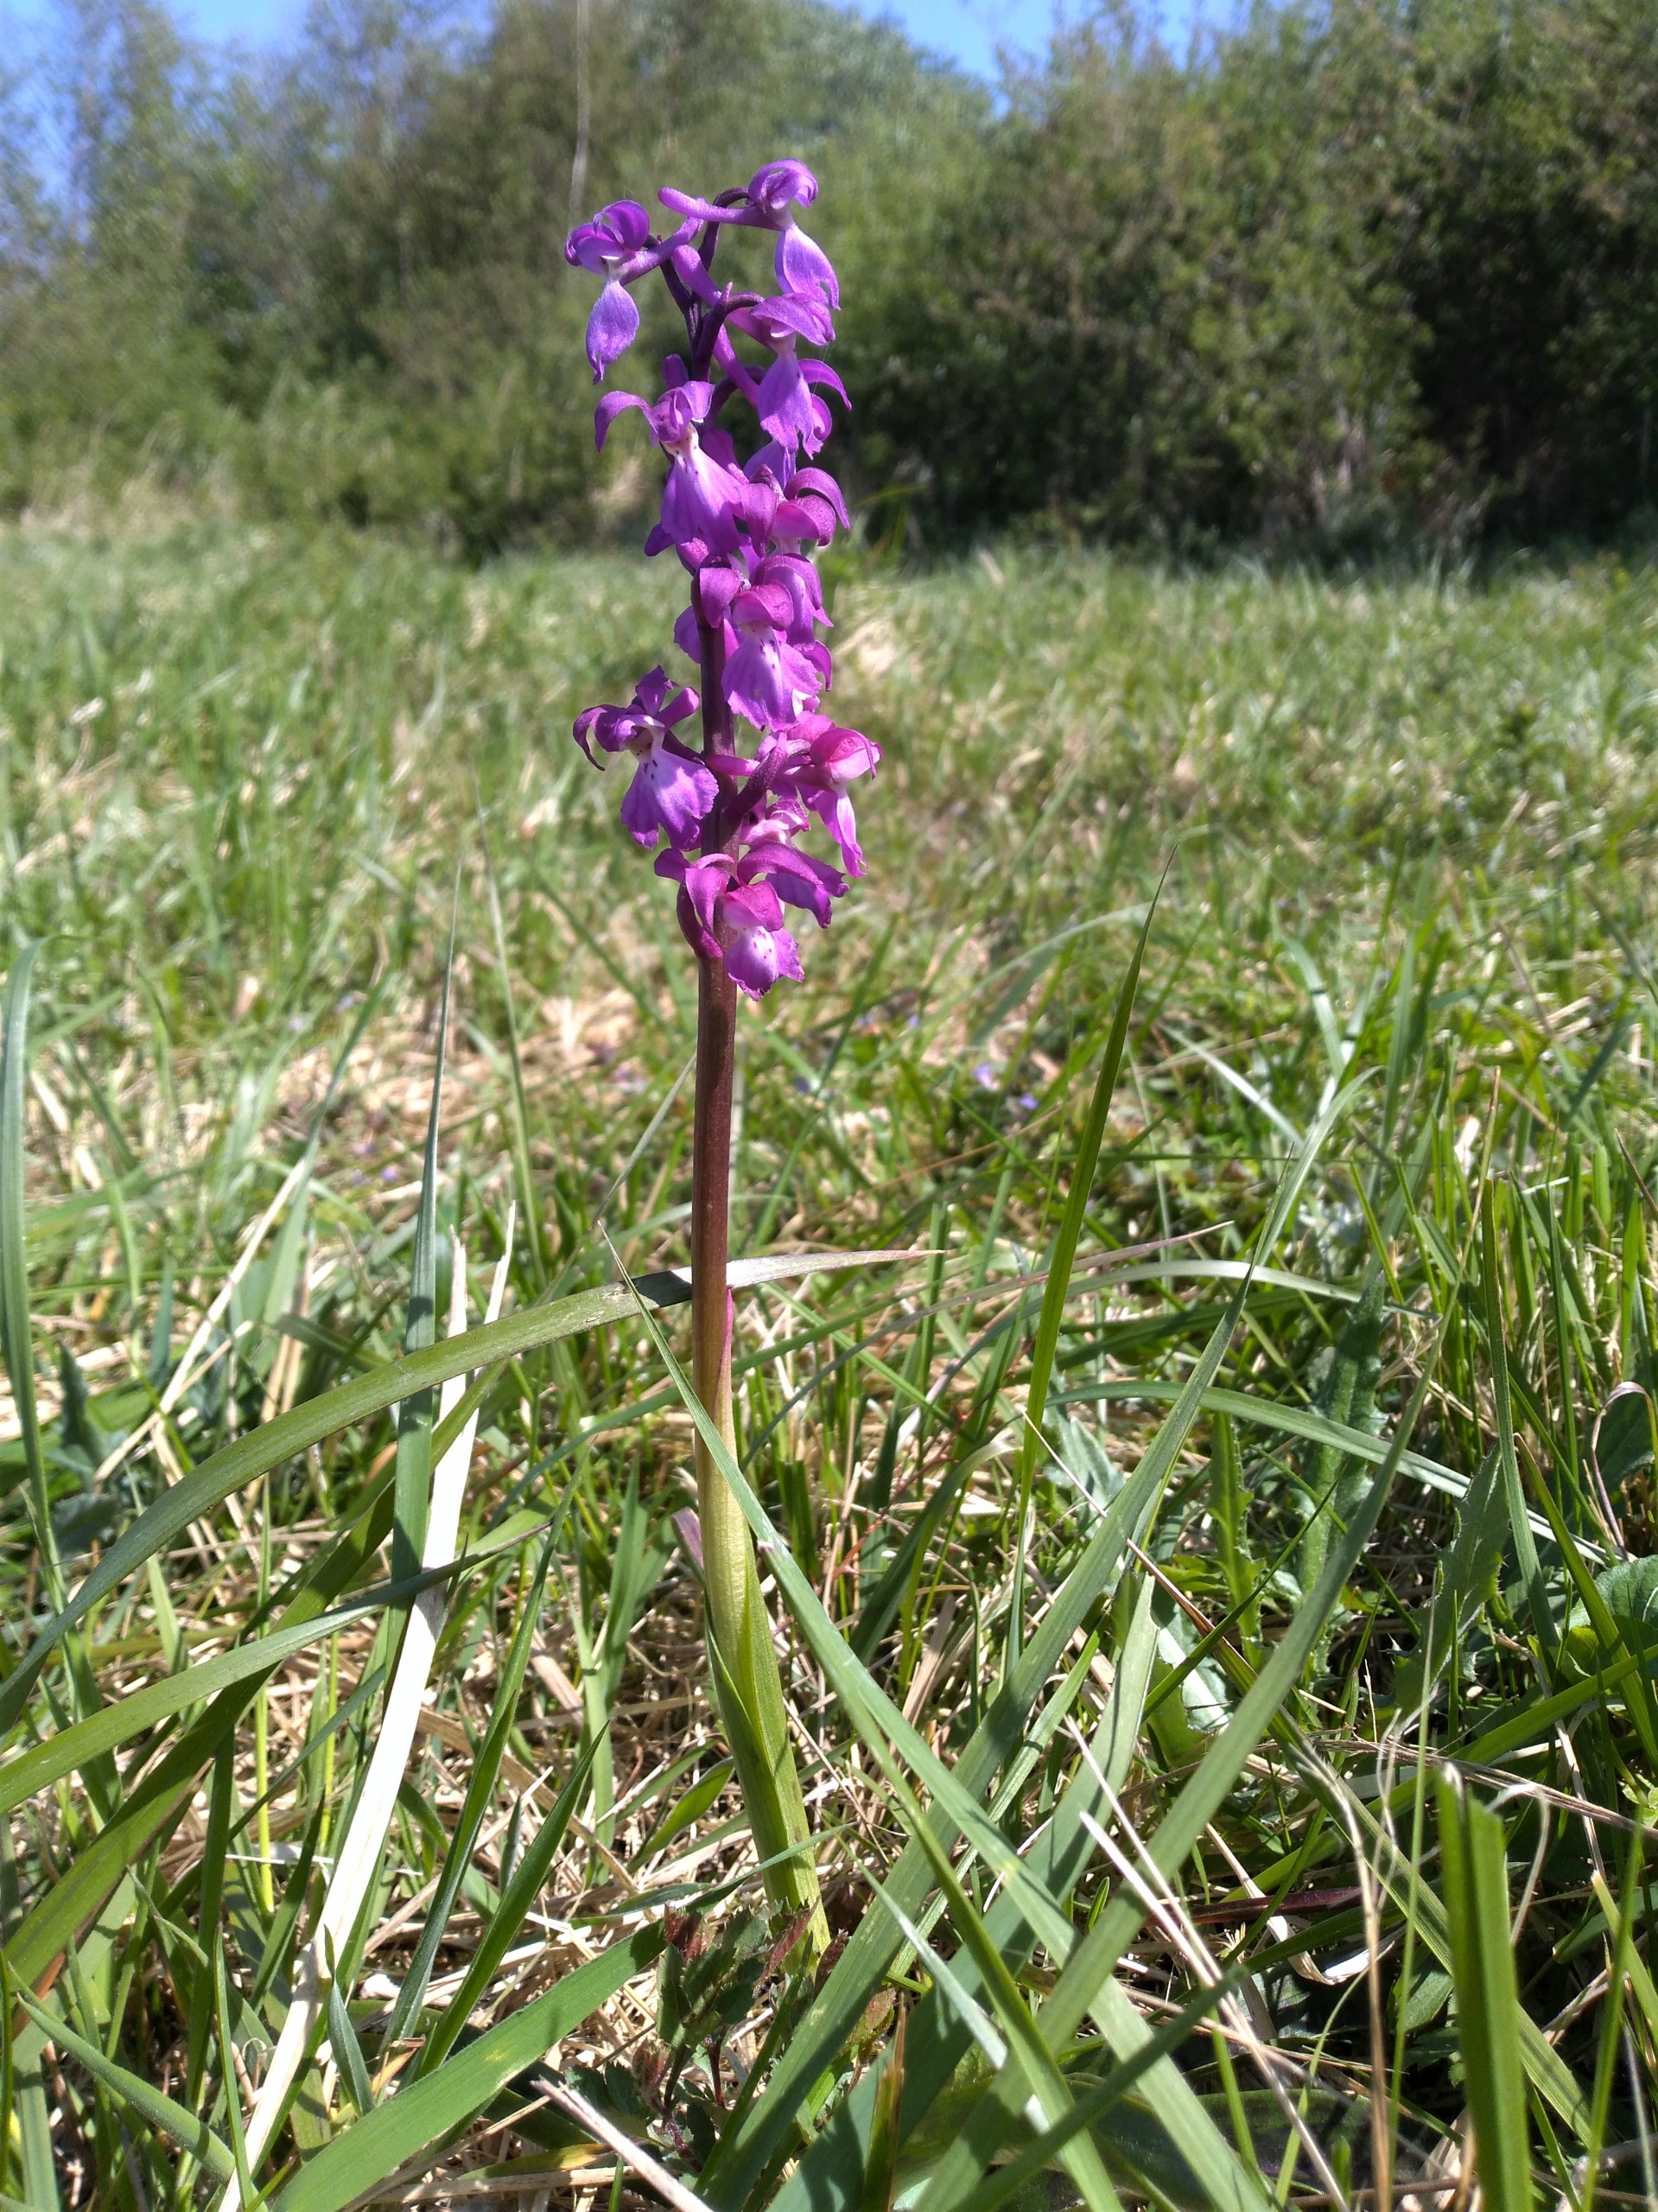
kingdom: Plantae
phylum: Tracheophyta
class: Liliopsida
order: Asparagales
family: Orchidaceae
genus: Orchis
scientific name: Orchis mascula
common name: Tyndakset gøgeurt
